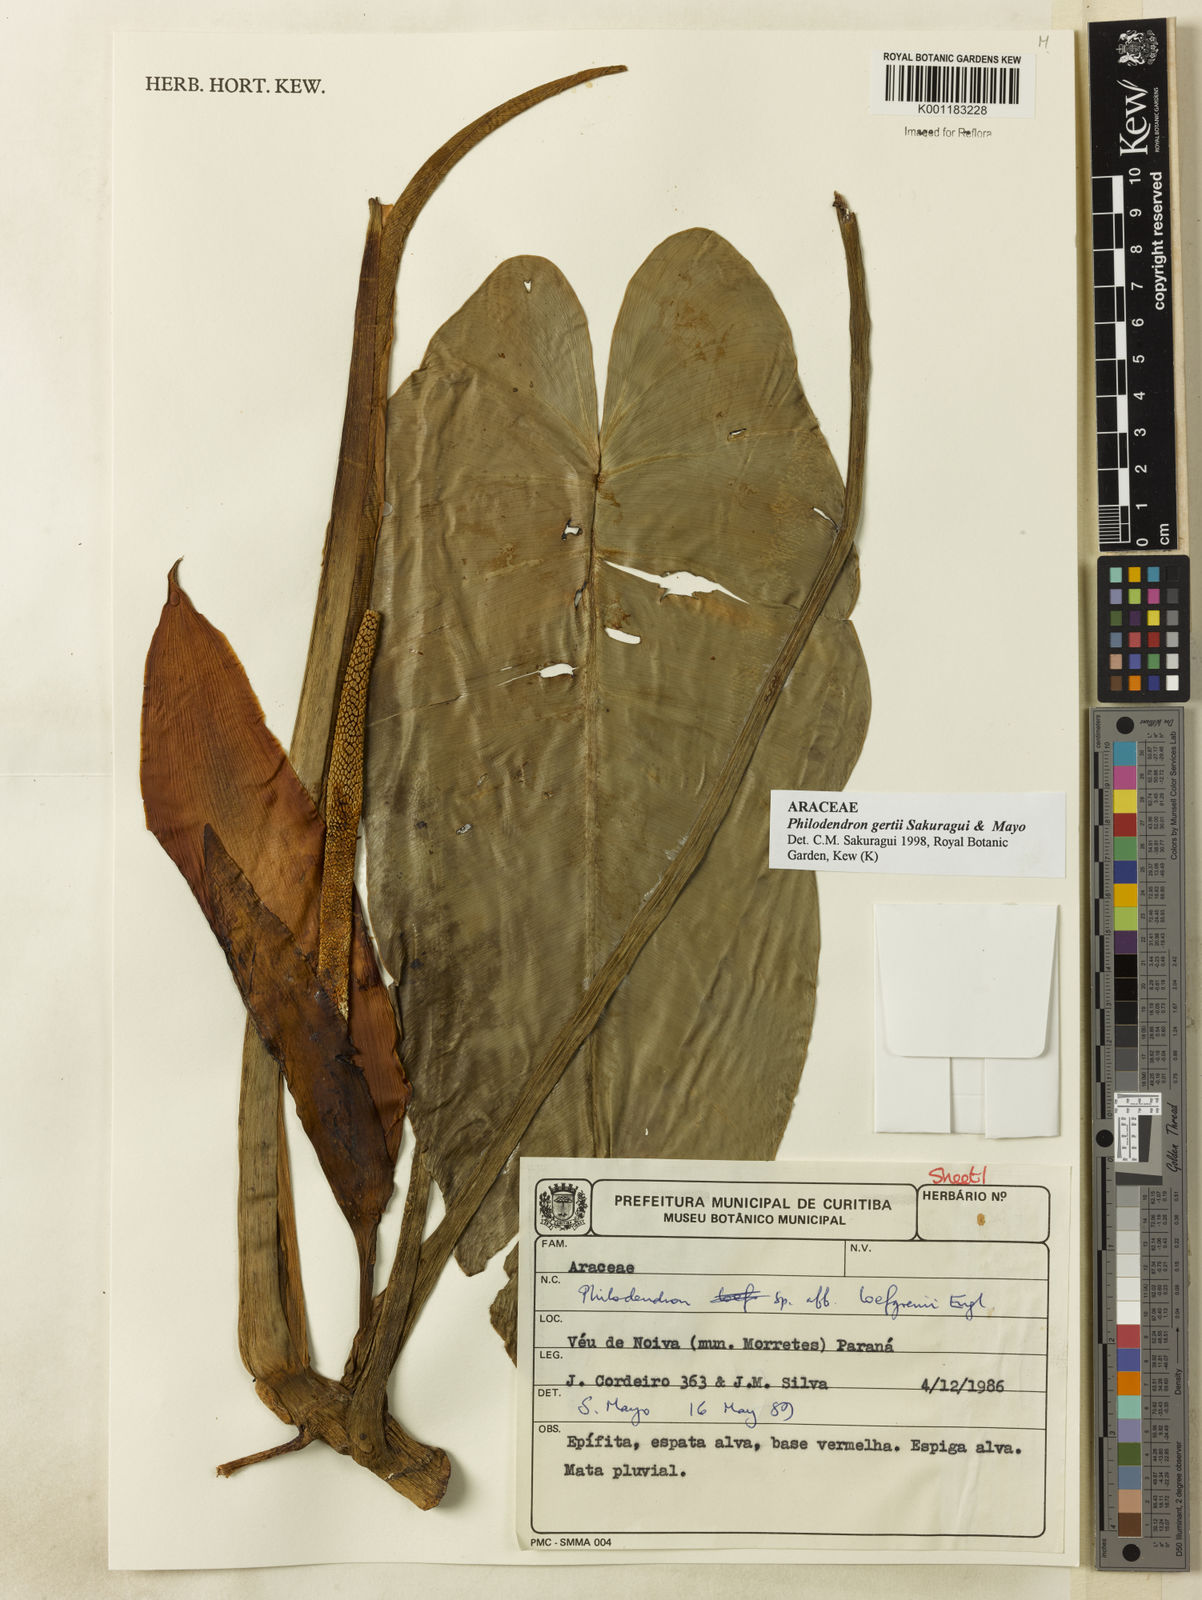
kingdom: Plantae
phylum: Tracheophyta
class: Liliopsida
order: Alismatales
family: Araceae
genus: Philodendron
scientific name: Philodendron
